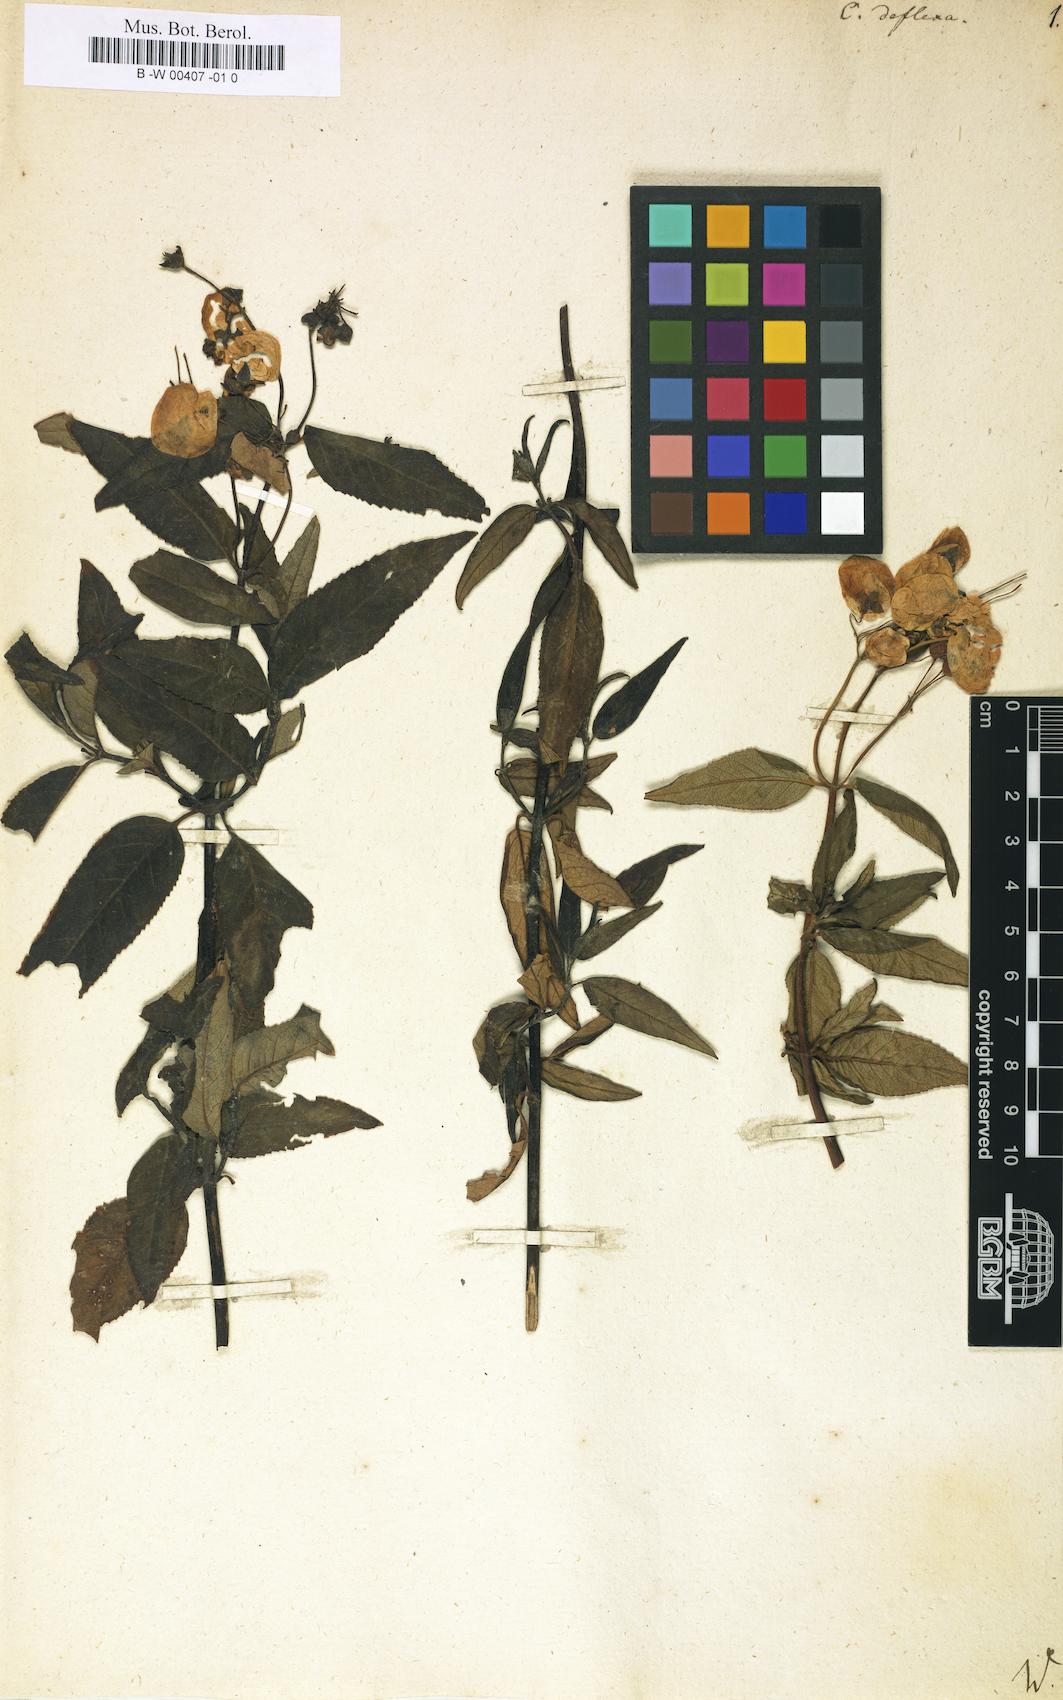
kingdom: Plantae
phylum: Tracheophyta
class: Magnoliopsida
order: Lamiales
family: Calceolariaceae
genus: Calceolaria
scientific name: Calceolaria deflexa
